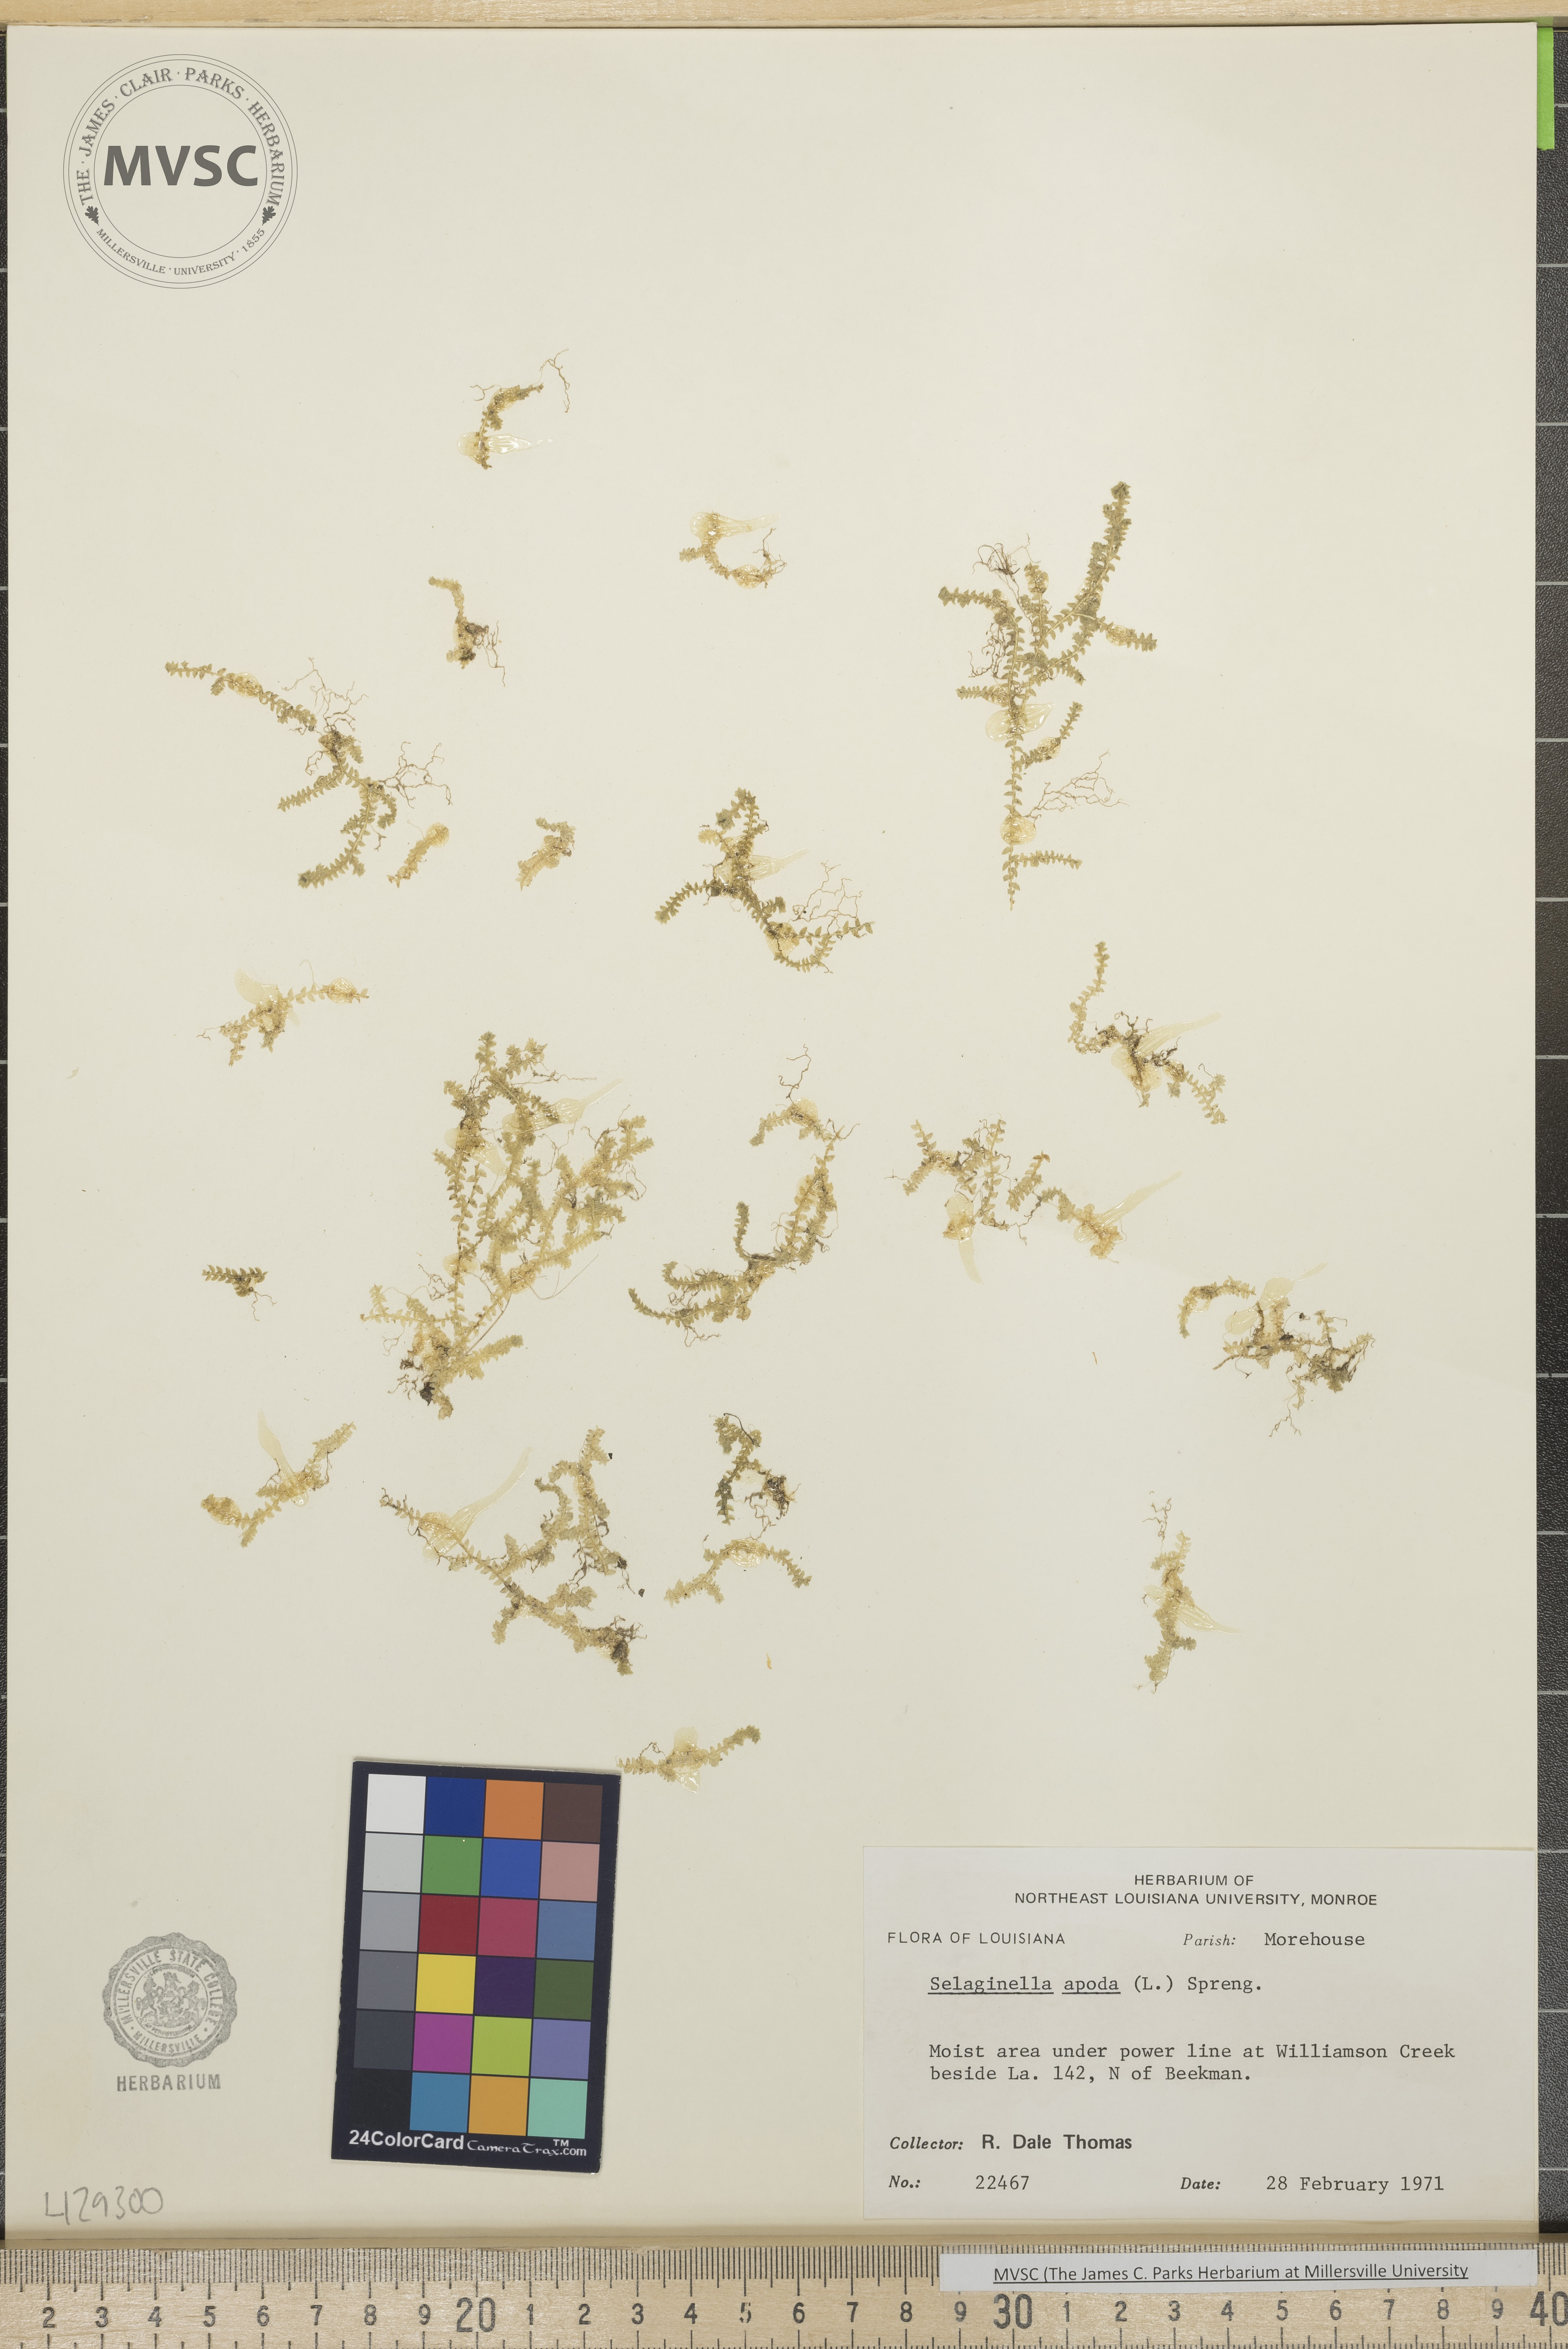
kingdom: Plantae
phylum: Tracheophyta
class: Lycopodiopsida
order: Selaginellales
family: Selaginellaceae
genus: Selaginella
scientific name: Selaginella apoda
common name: Creeping spikemoss
